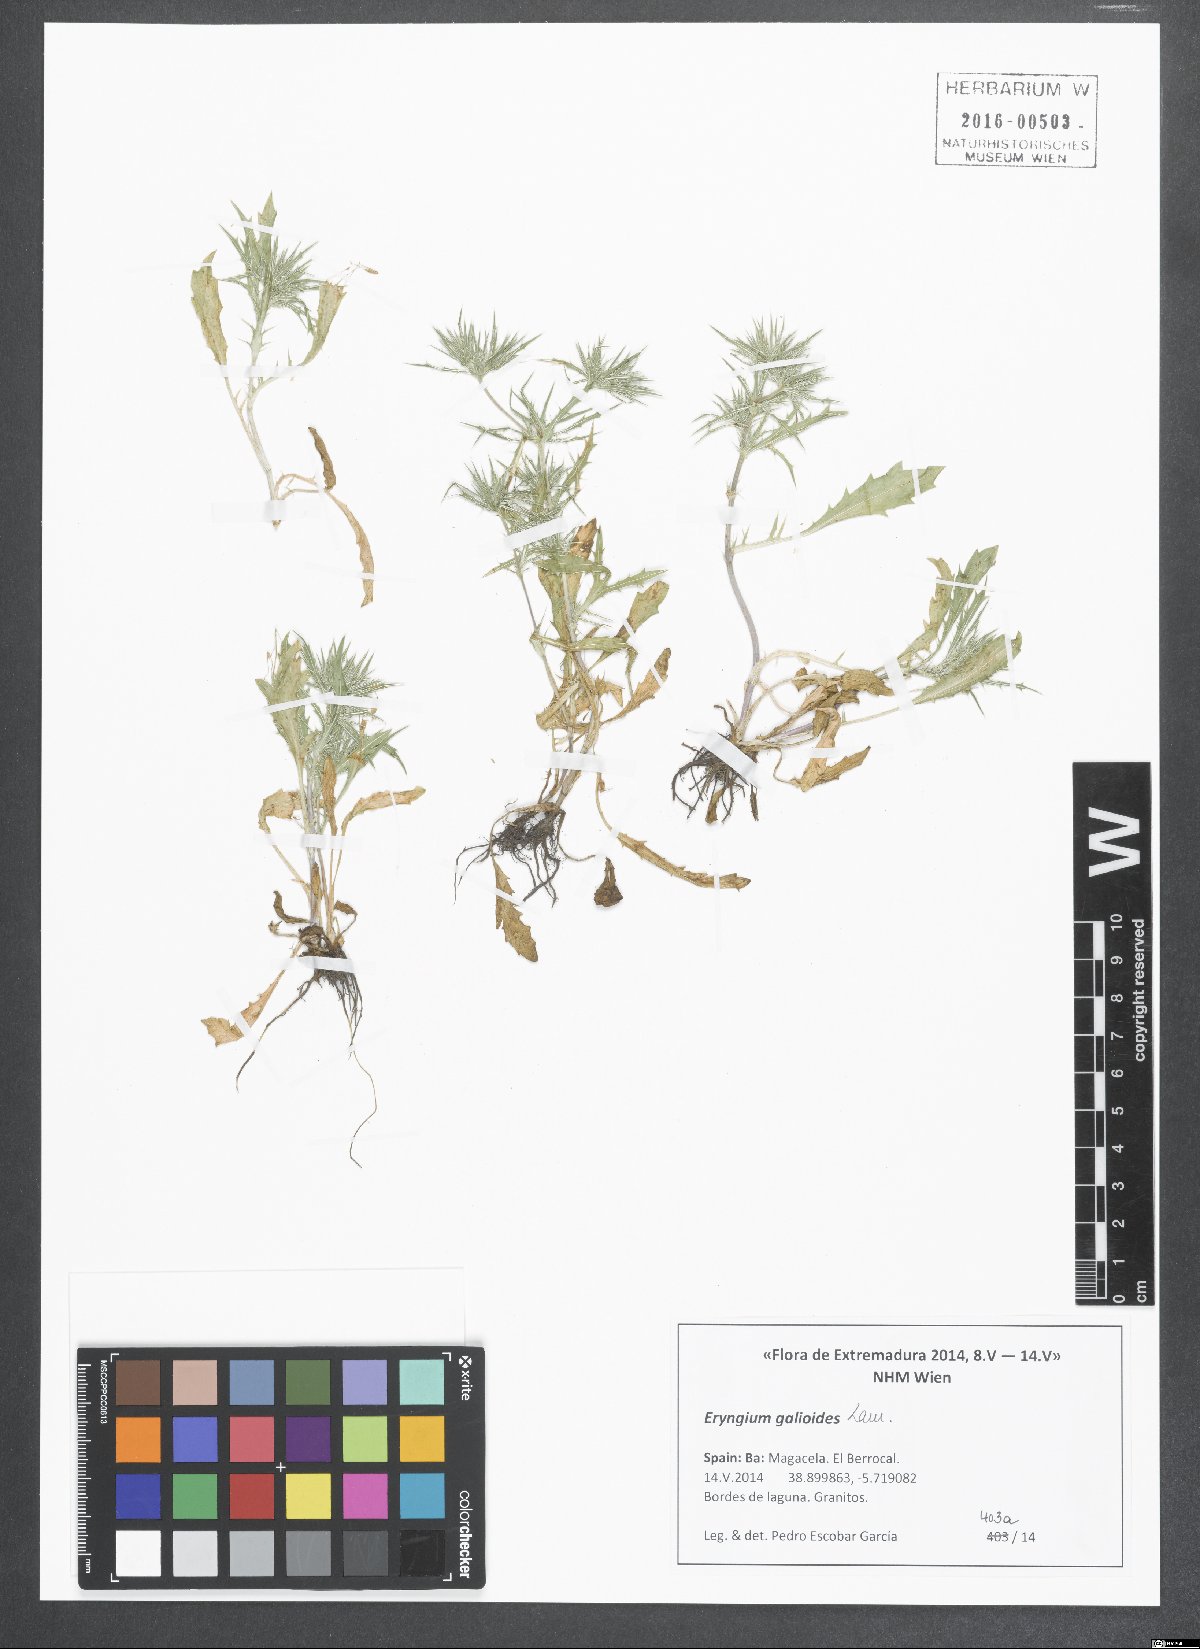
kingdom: Plantae
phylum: Tracheophyta
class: Magnoliopsida
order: Apiales
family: Apiaceae
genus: Eryngium
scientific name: Eryngium galioides
